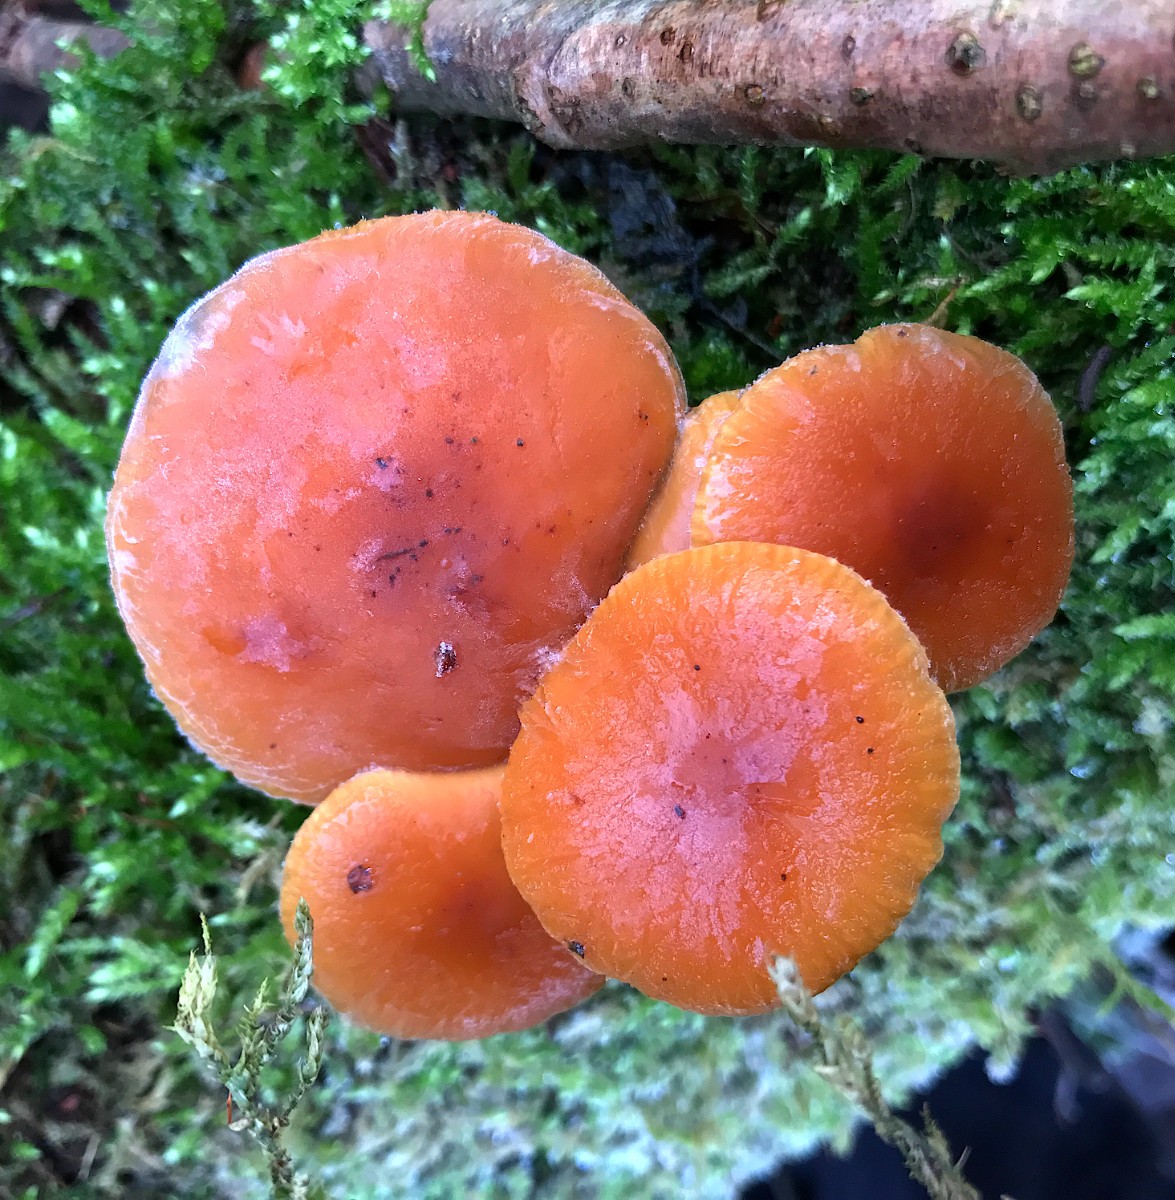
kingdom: Fungi
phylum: Basidiomycota
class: Agaricomycetes
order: Agaricales
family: Physalacriaceae
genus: Flammulina
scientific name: Flammulina velutipes
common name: gul fløjlsfod
